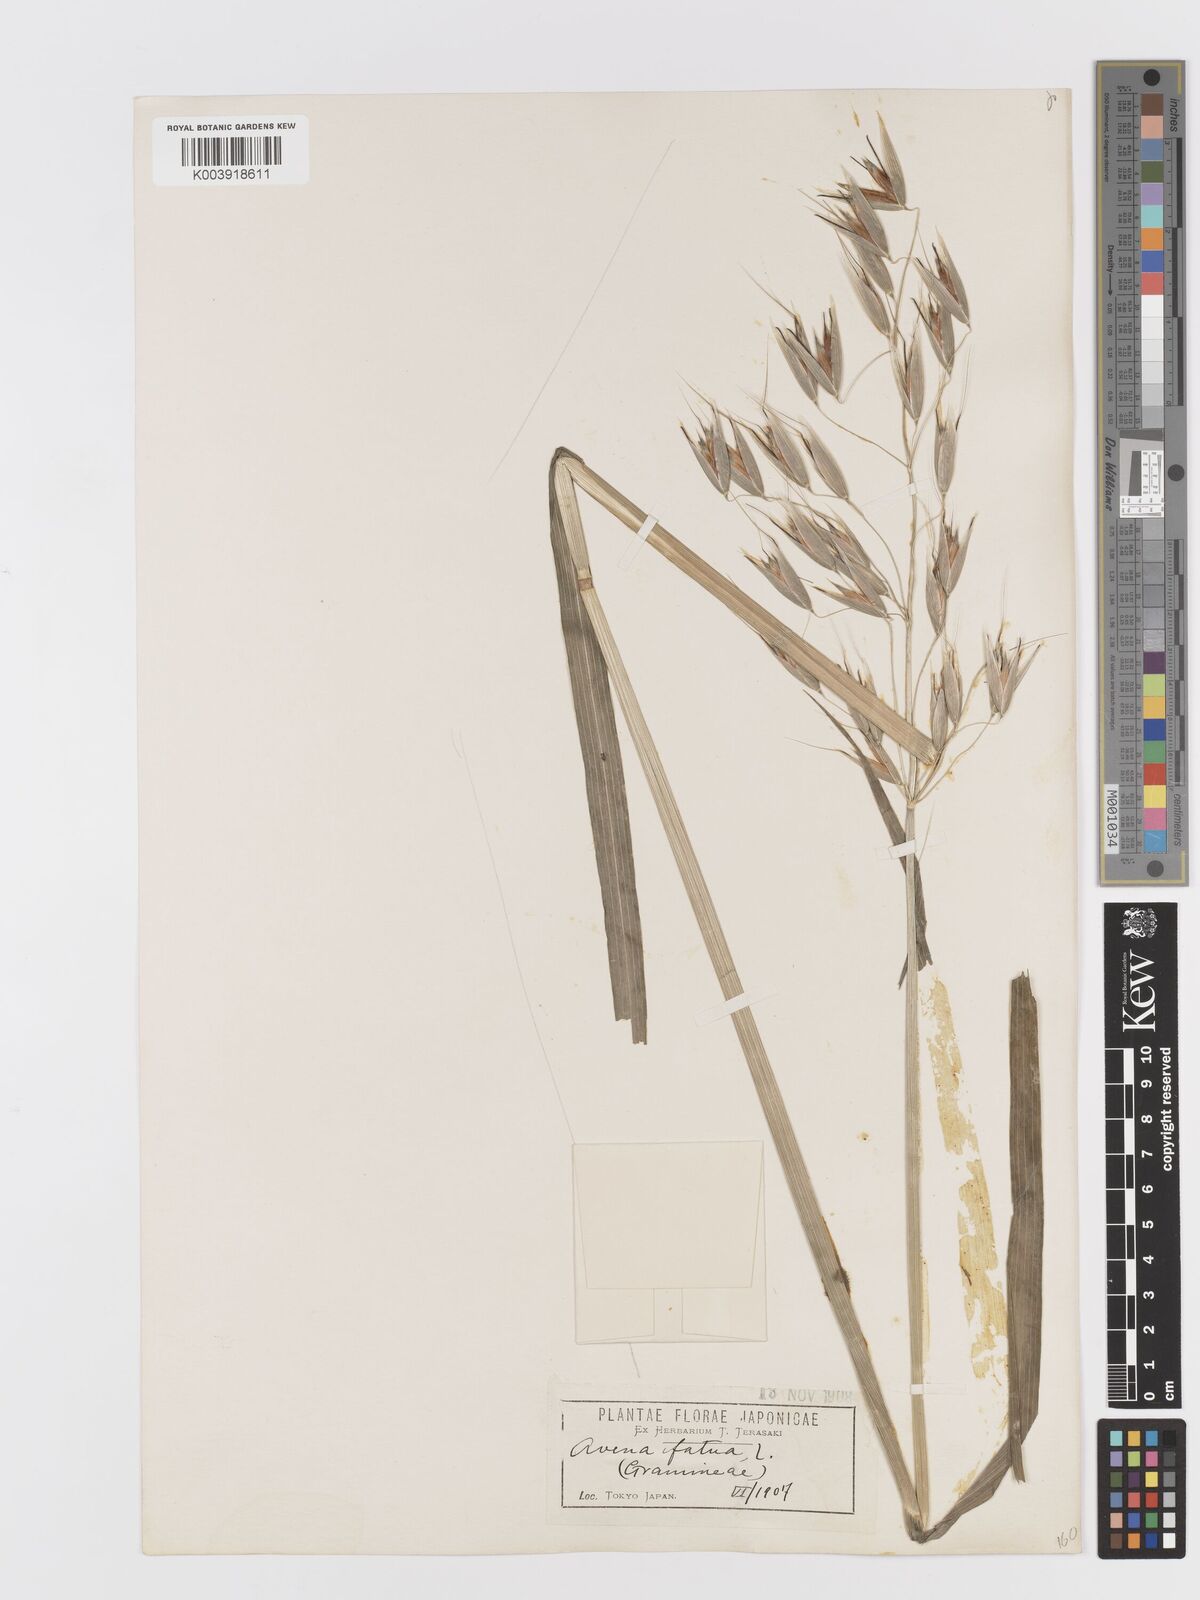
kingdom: Plantae
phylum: Tracheophyta
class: Liliopsida
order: Poales
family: Poaceae
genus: Avena
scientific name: Avena fatua
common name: Wild oat
